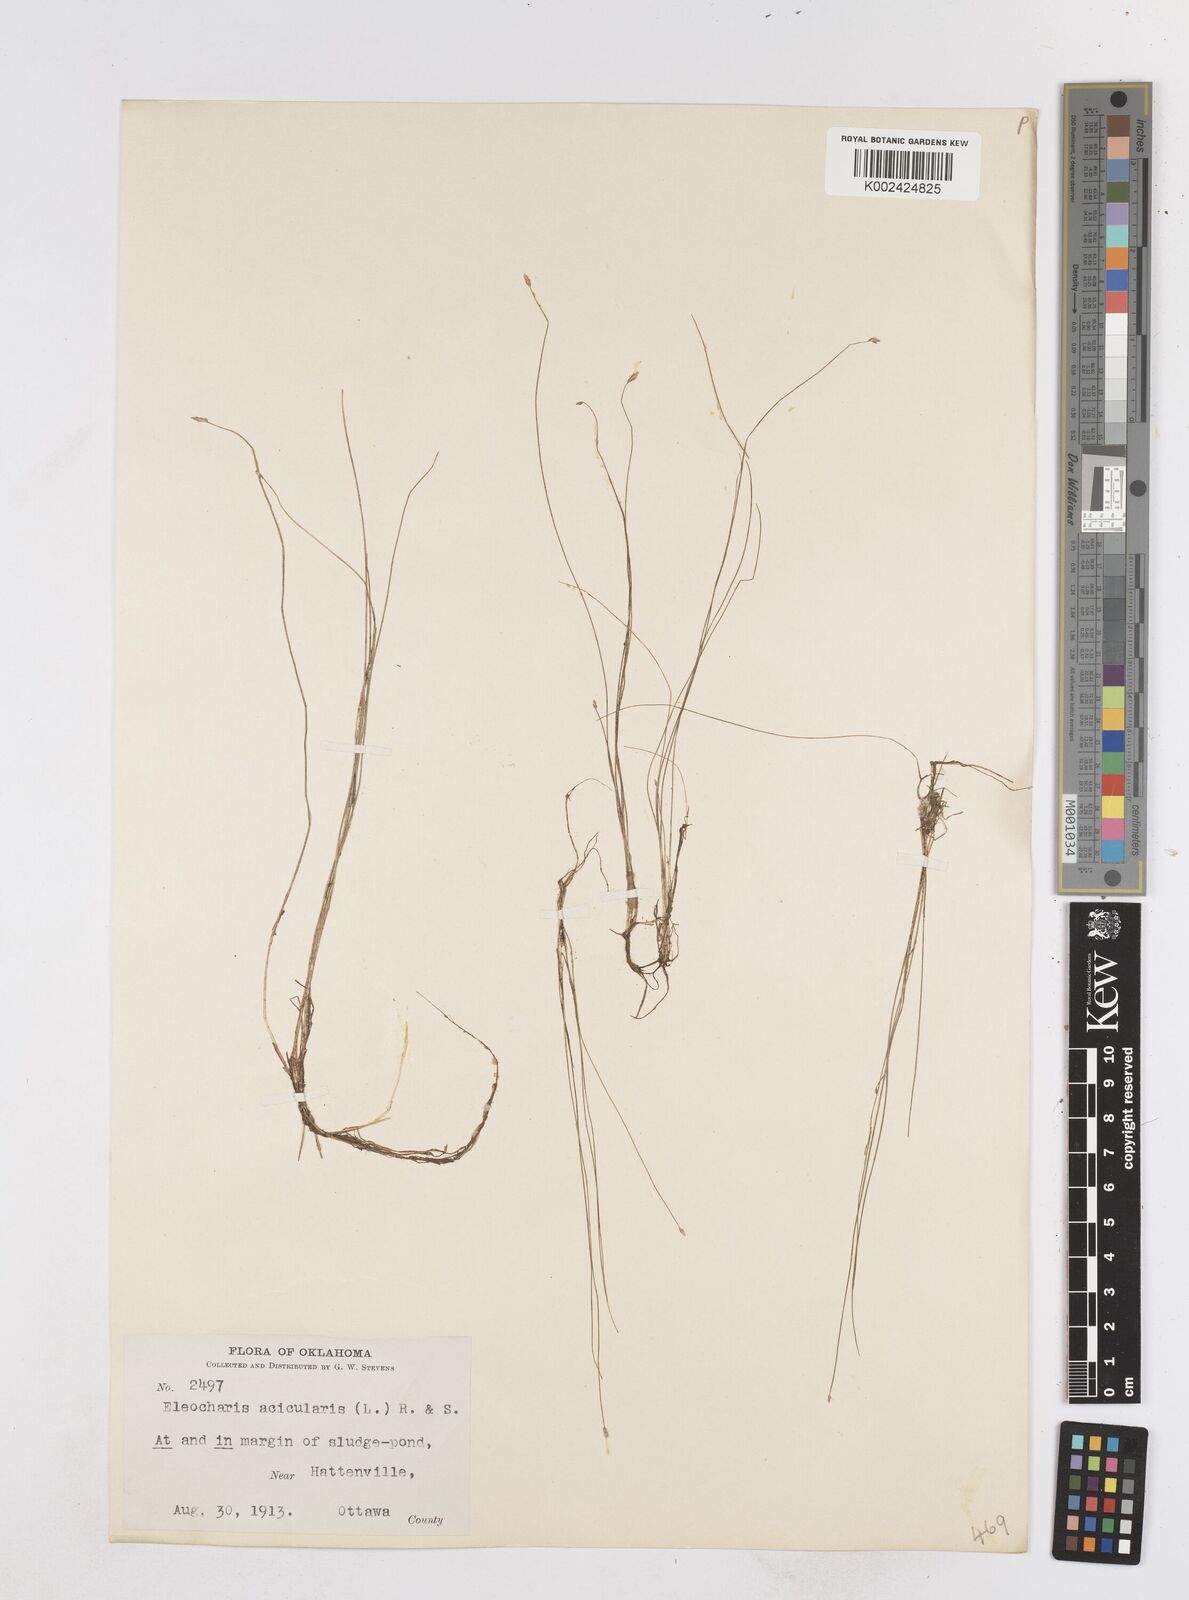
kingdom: Plantae
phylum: Tracheophyta
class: Liliopsida
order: Poales
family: Cyperaceae
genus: Eleocharis
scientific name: Eleocharis acicularis
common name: Needle spike-rush
